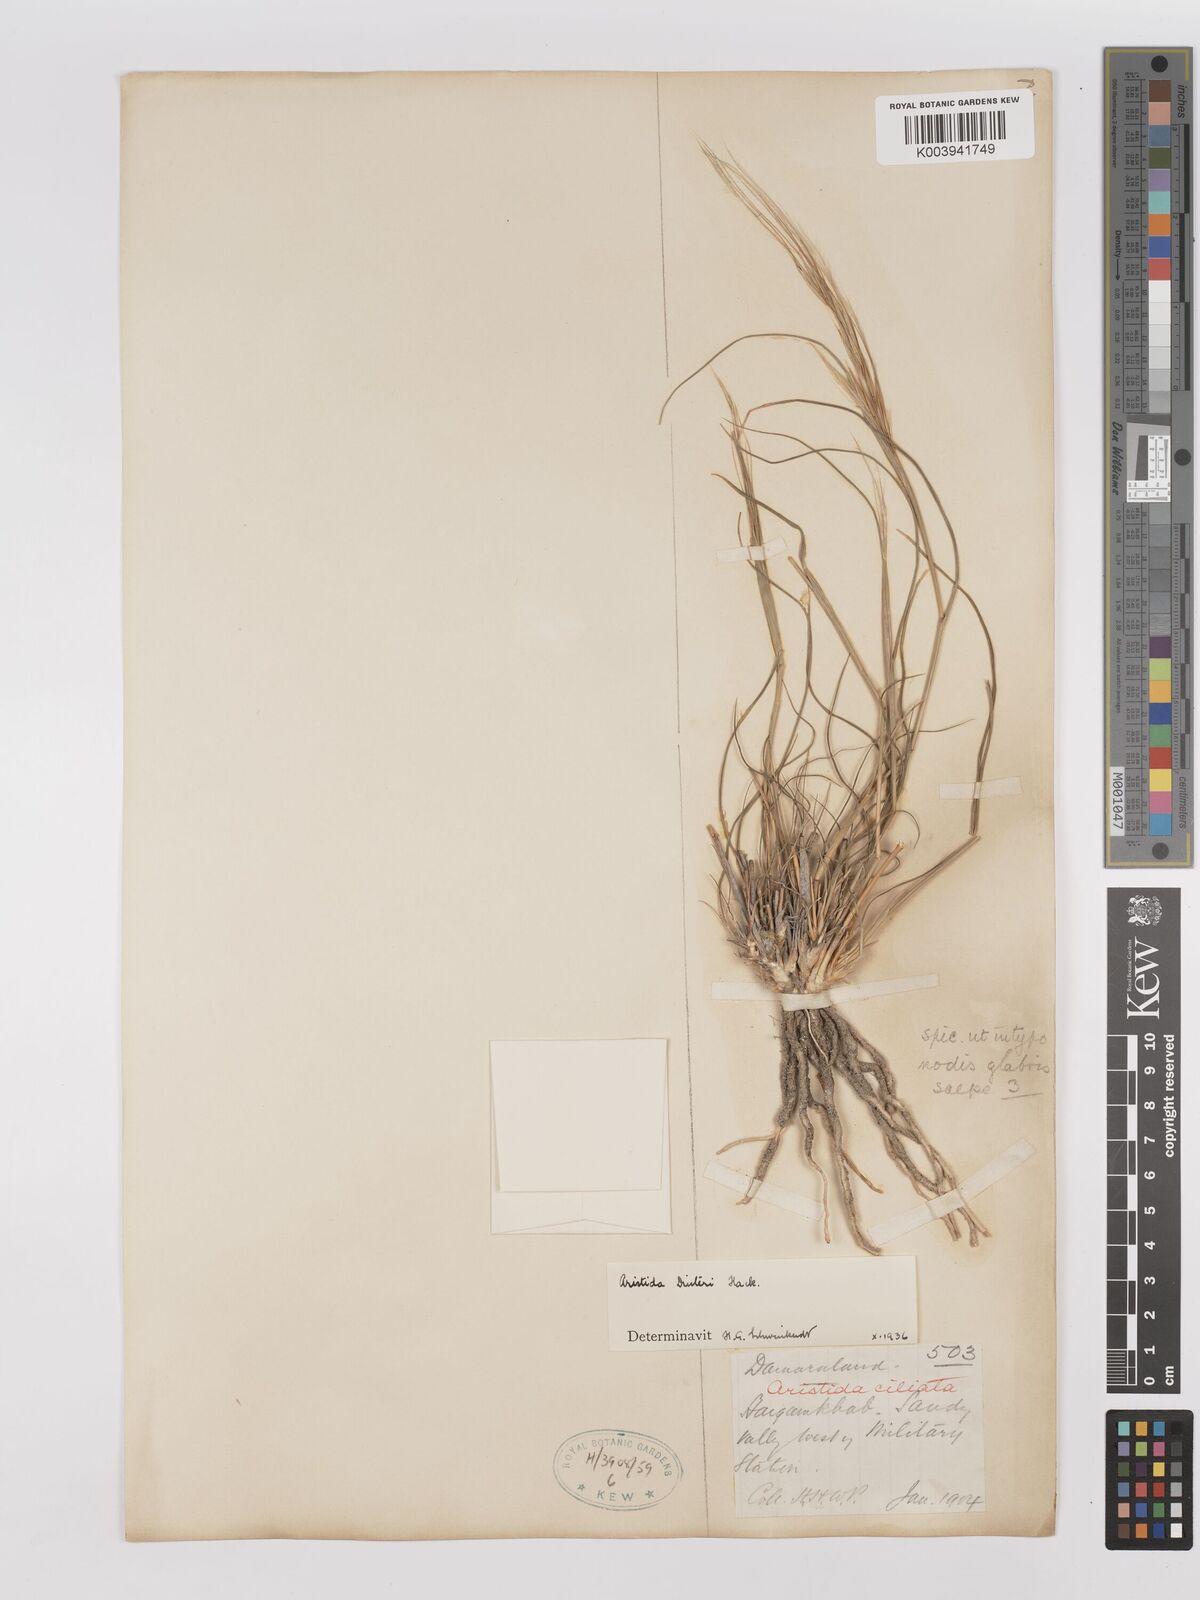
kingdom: Plantae
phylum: Tracheophyta
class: Liliopsida
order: Poales
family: Poaceae
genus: Stipagrostis
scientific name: Stipagrostis dinteri
